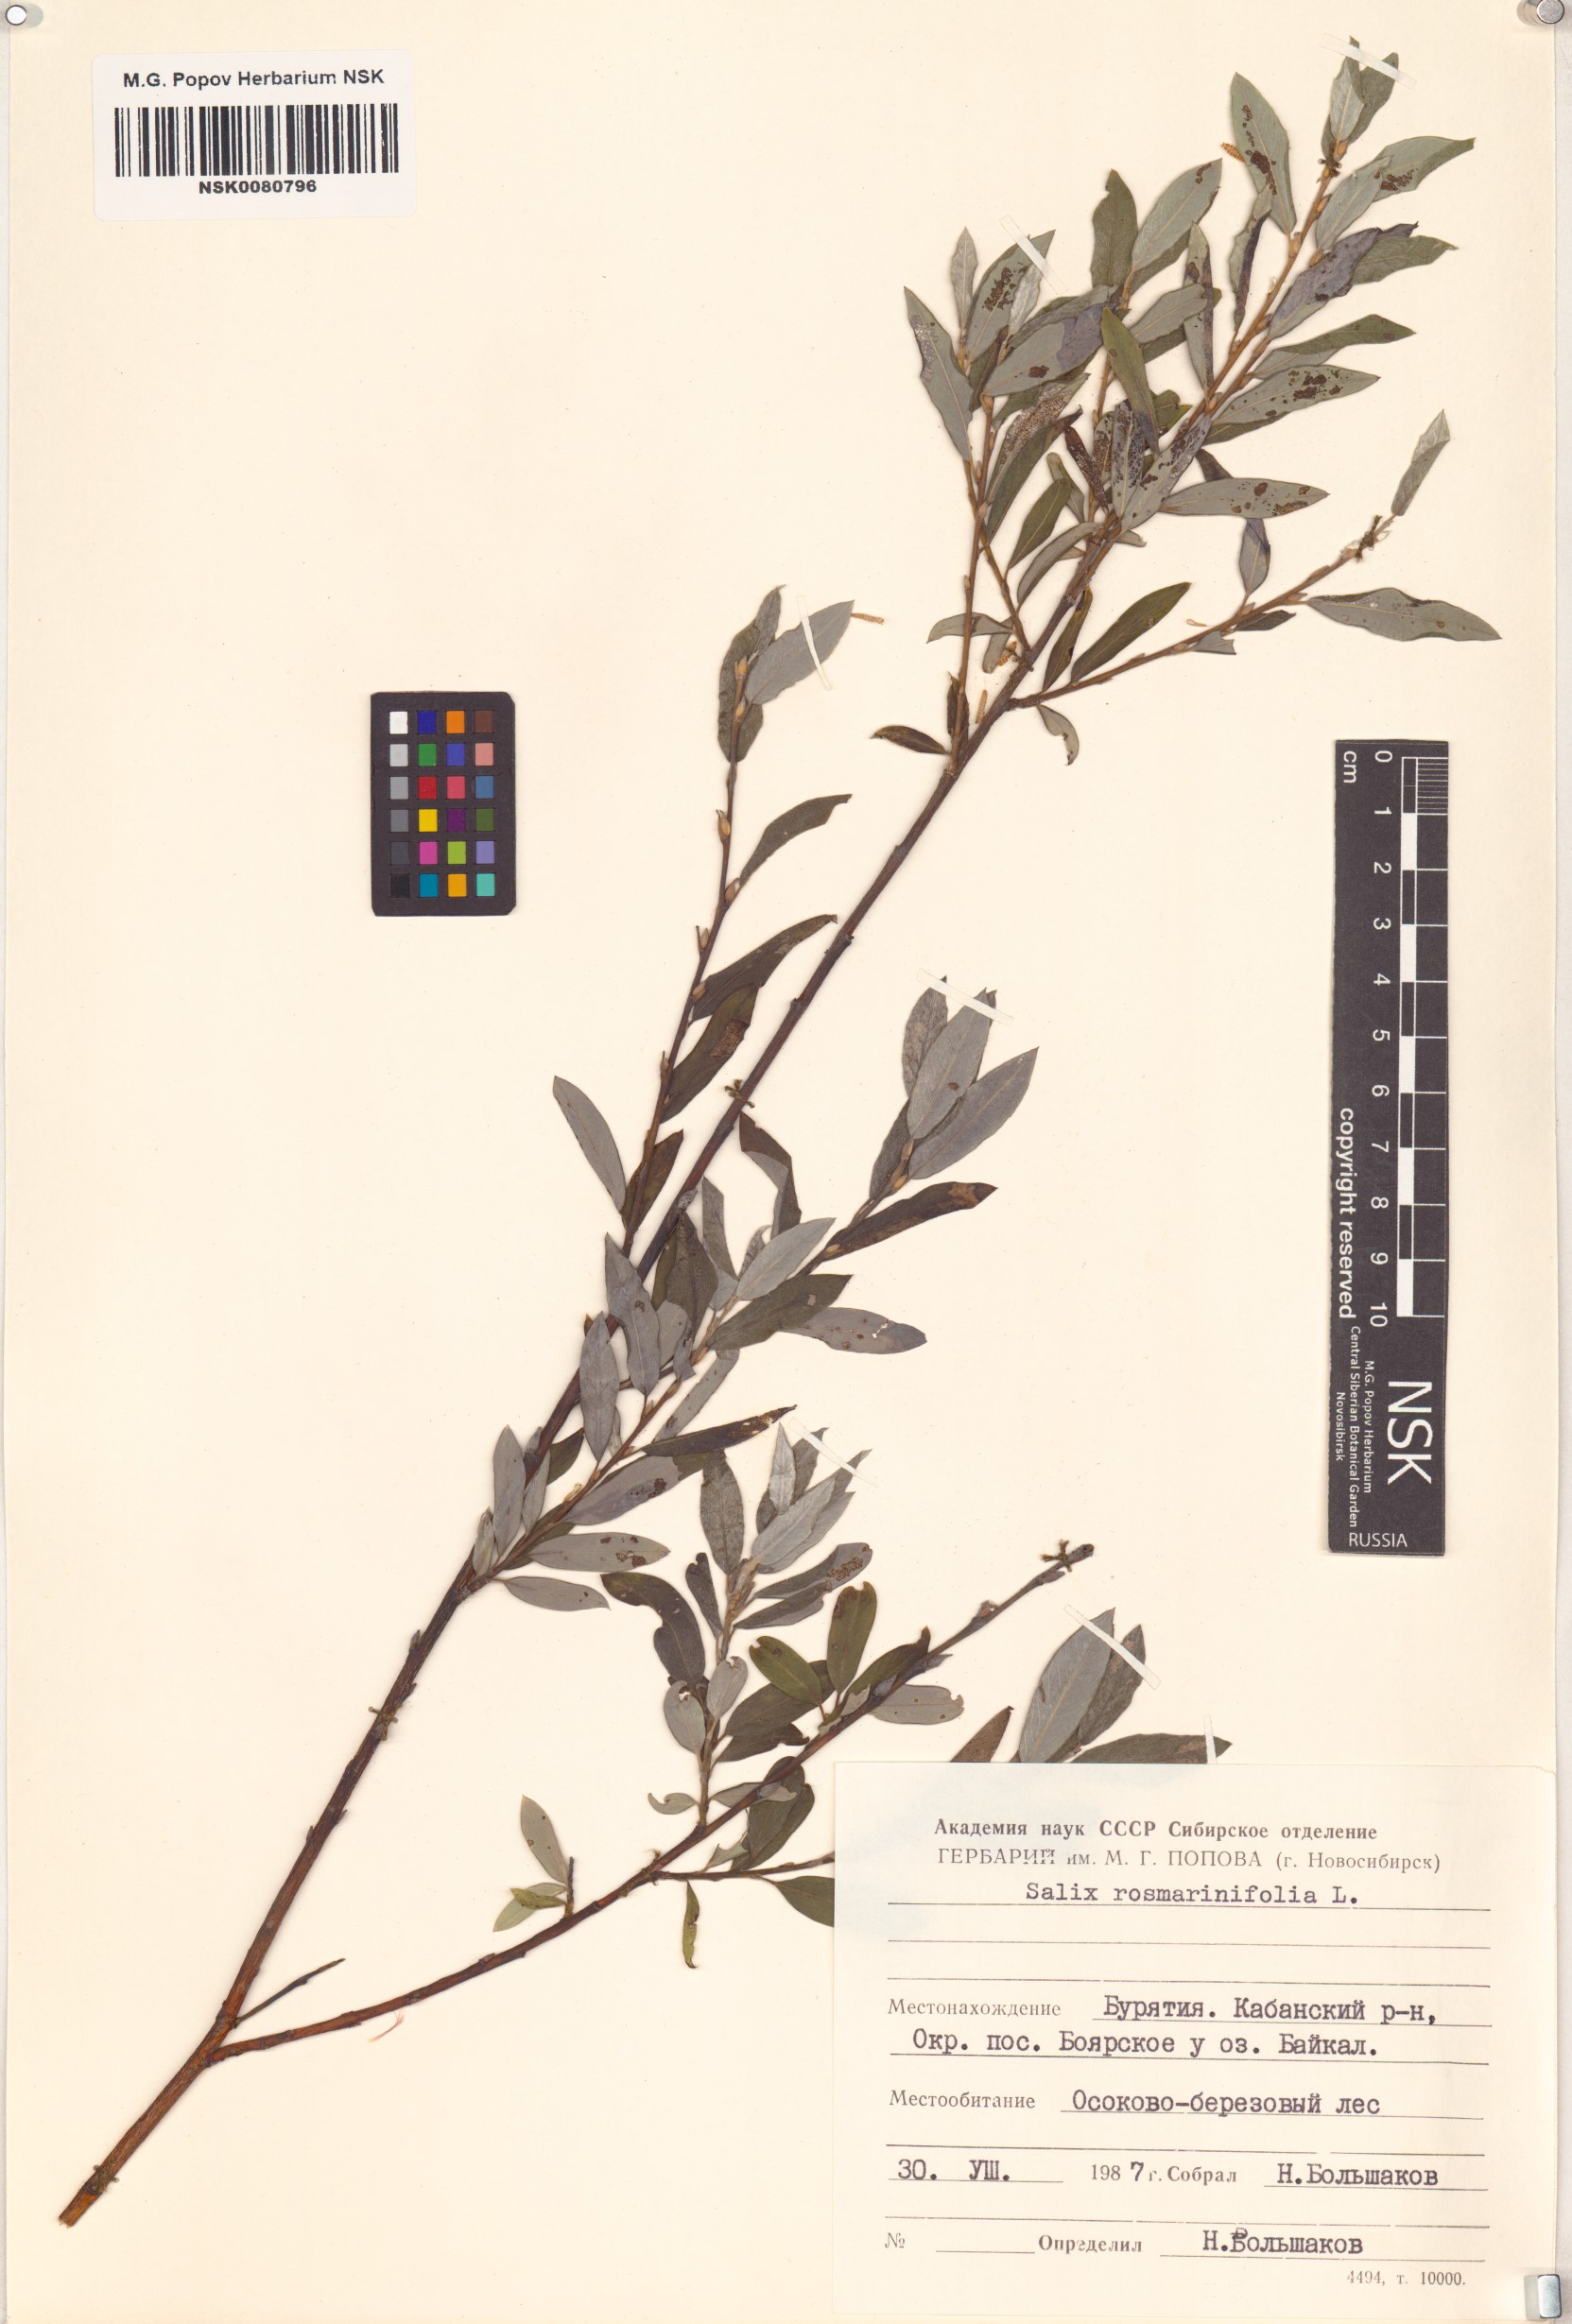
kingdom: Plantae
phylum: Tracheophyta
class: Magnoliopsida
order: Malpighiales
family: Salicaceae
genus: Salix
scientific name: Salix rosmarinifolia
